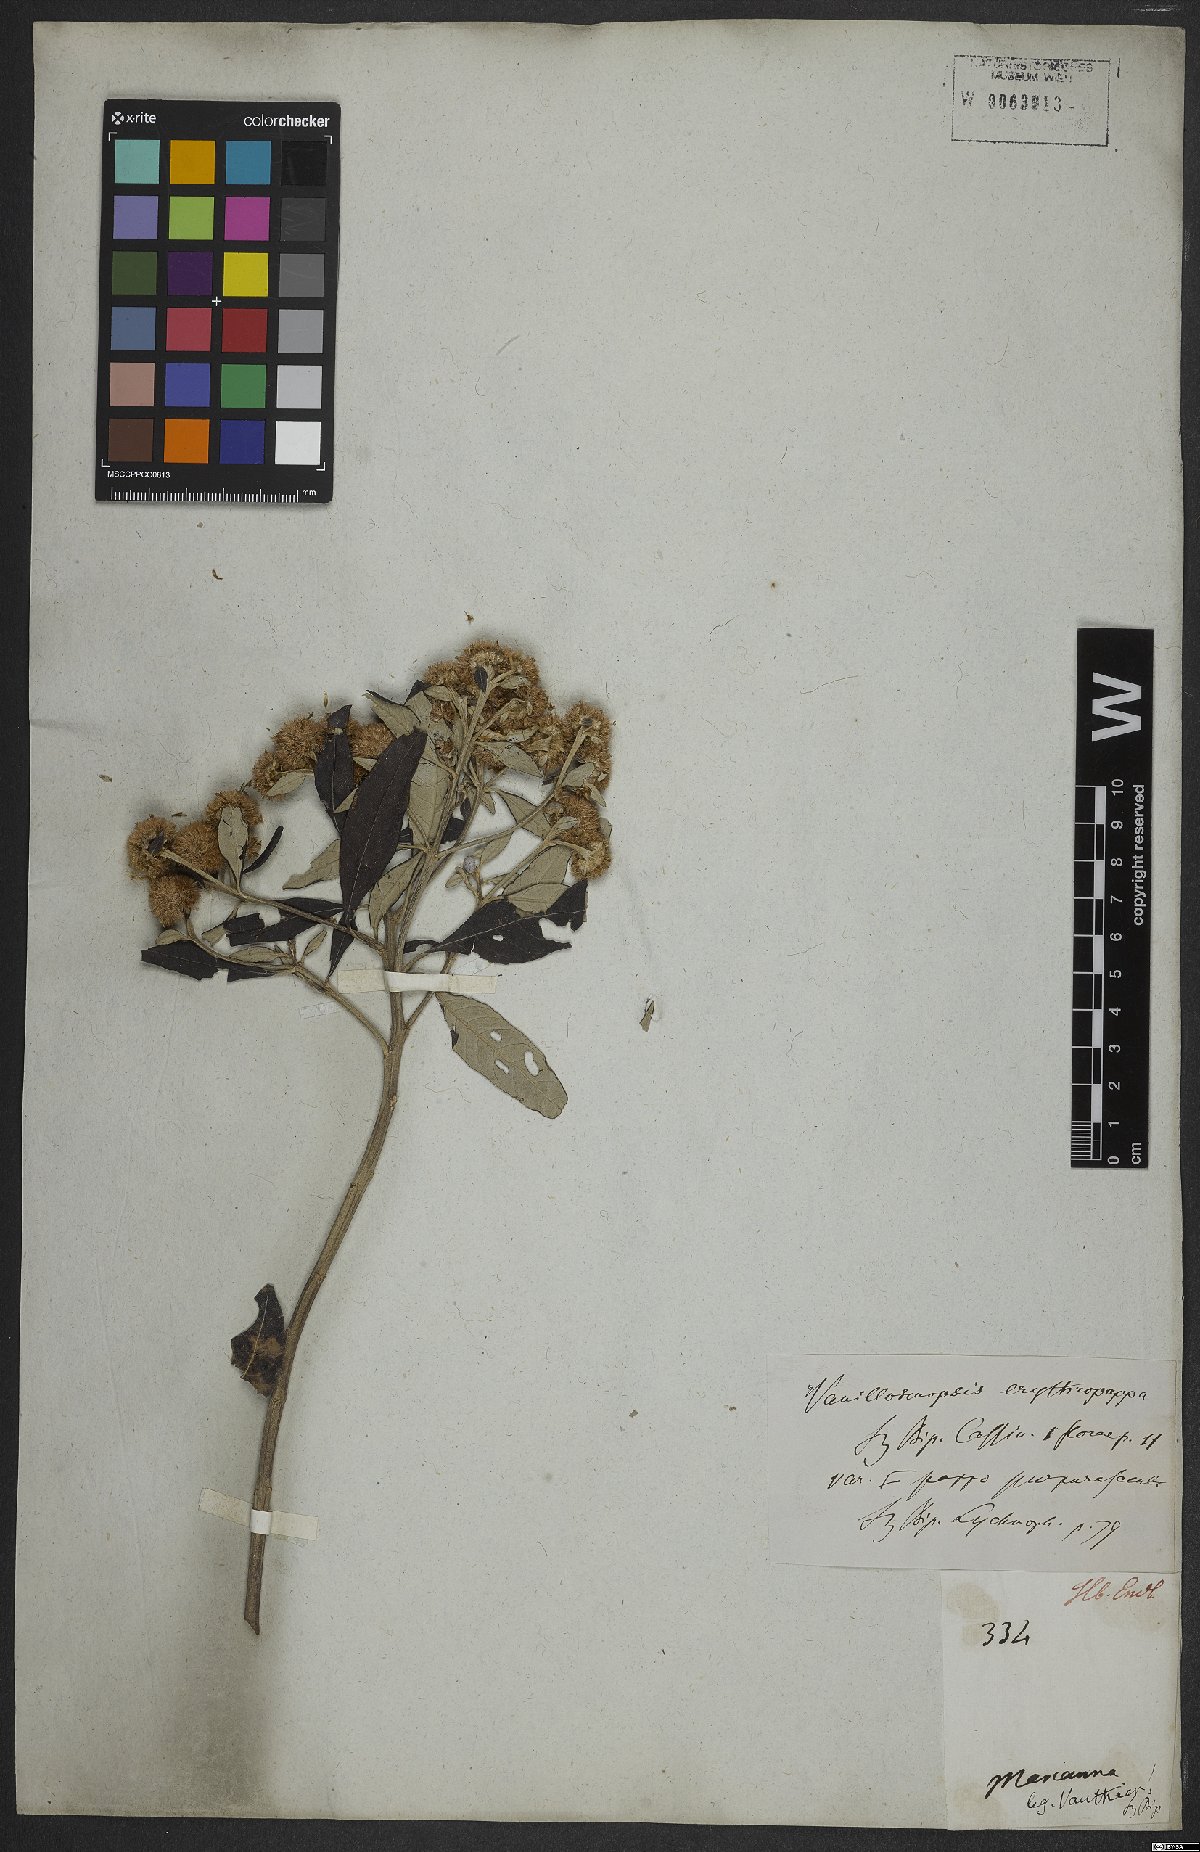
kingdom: Plantae
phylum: Tracheophyta
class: Magnoliopsida
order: Asterales
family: Asteraceae
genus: Eremanthus
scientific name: Eremanthus erythropappus
